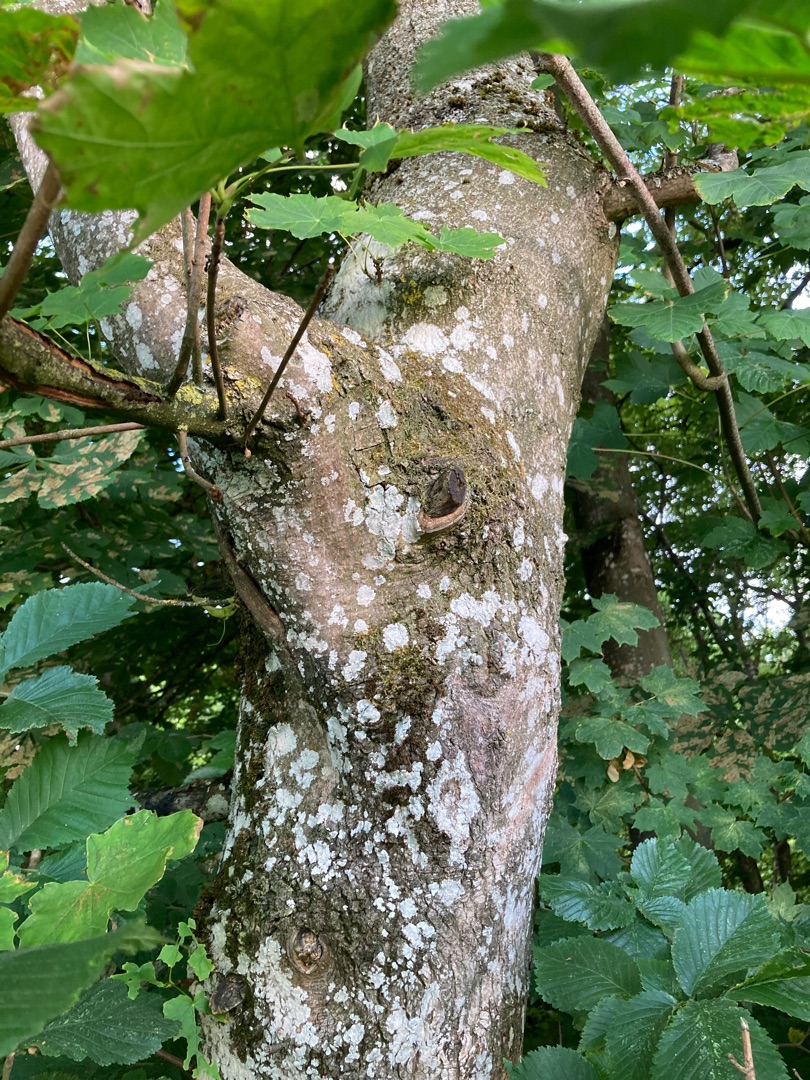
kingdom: Plantae
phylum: Tracheophyta
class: Magnoliopsida
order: Sapindales
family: Sapindaceae
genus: Acer
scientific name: Acer platanoides
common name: Spids-løn
